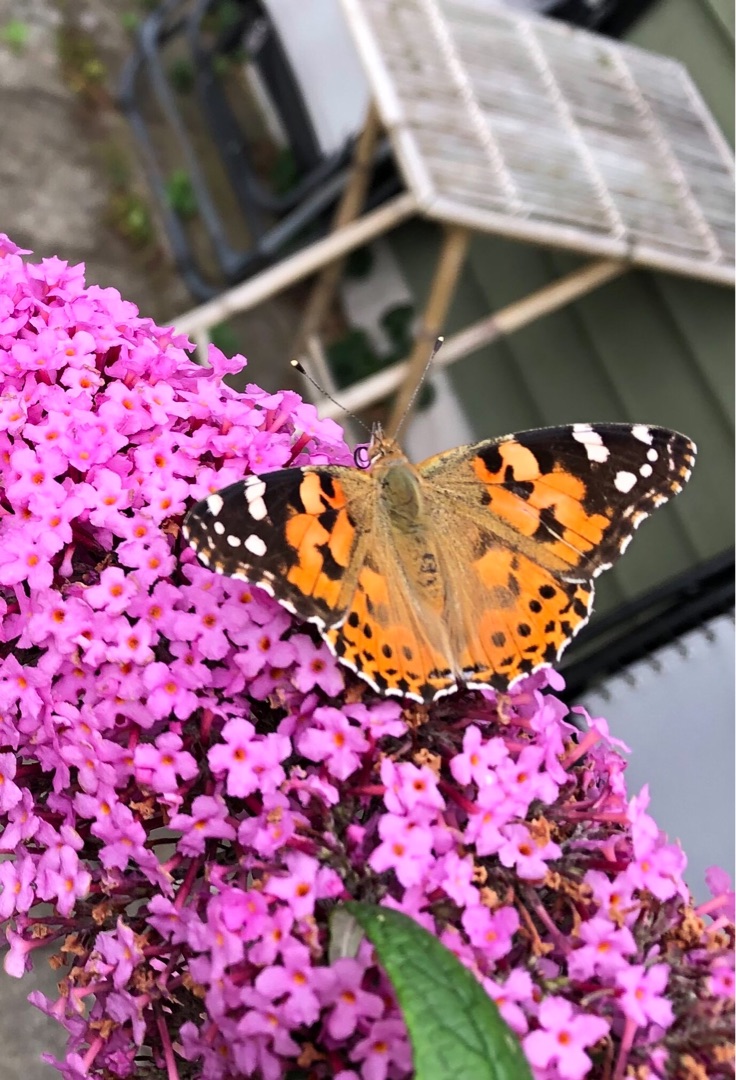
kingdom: Animalia
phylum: Arthropoda
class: Insecta
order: Lepidoptera
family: Nymphalidae
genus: Vanessa
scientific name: Vanessa cardui
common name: Tidselsommerfugl
